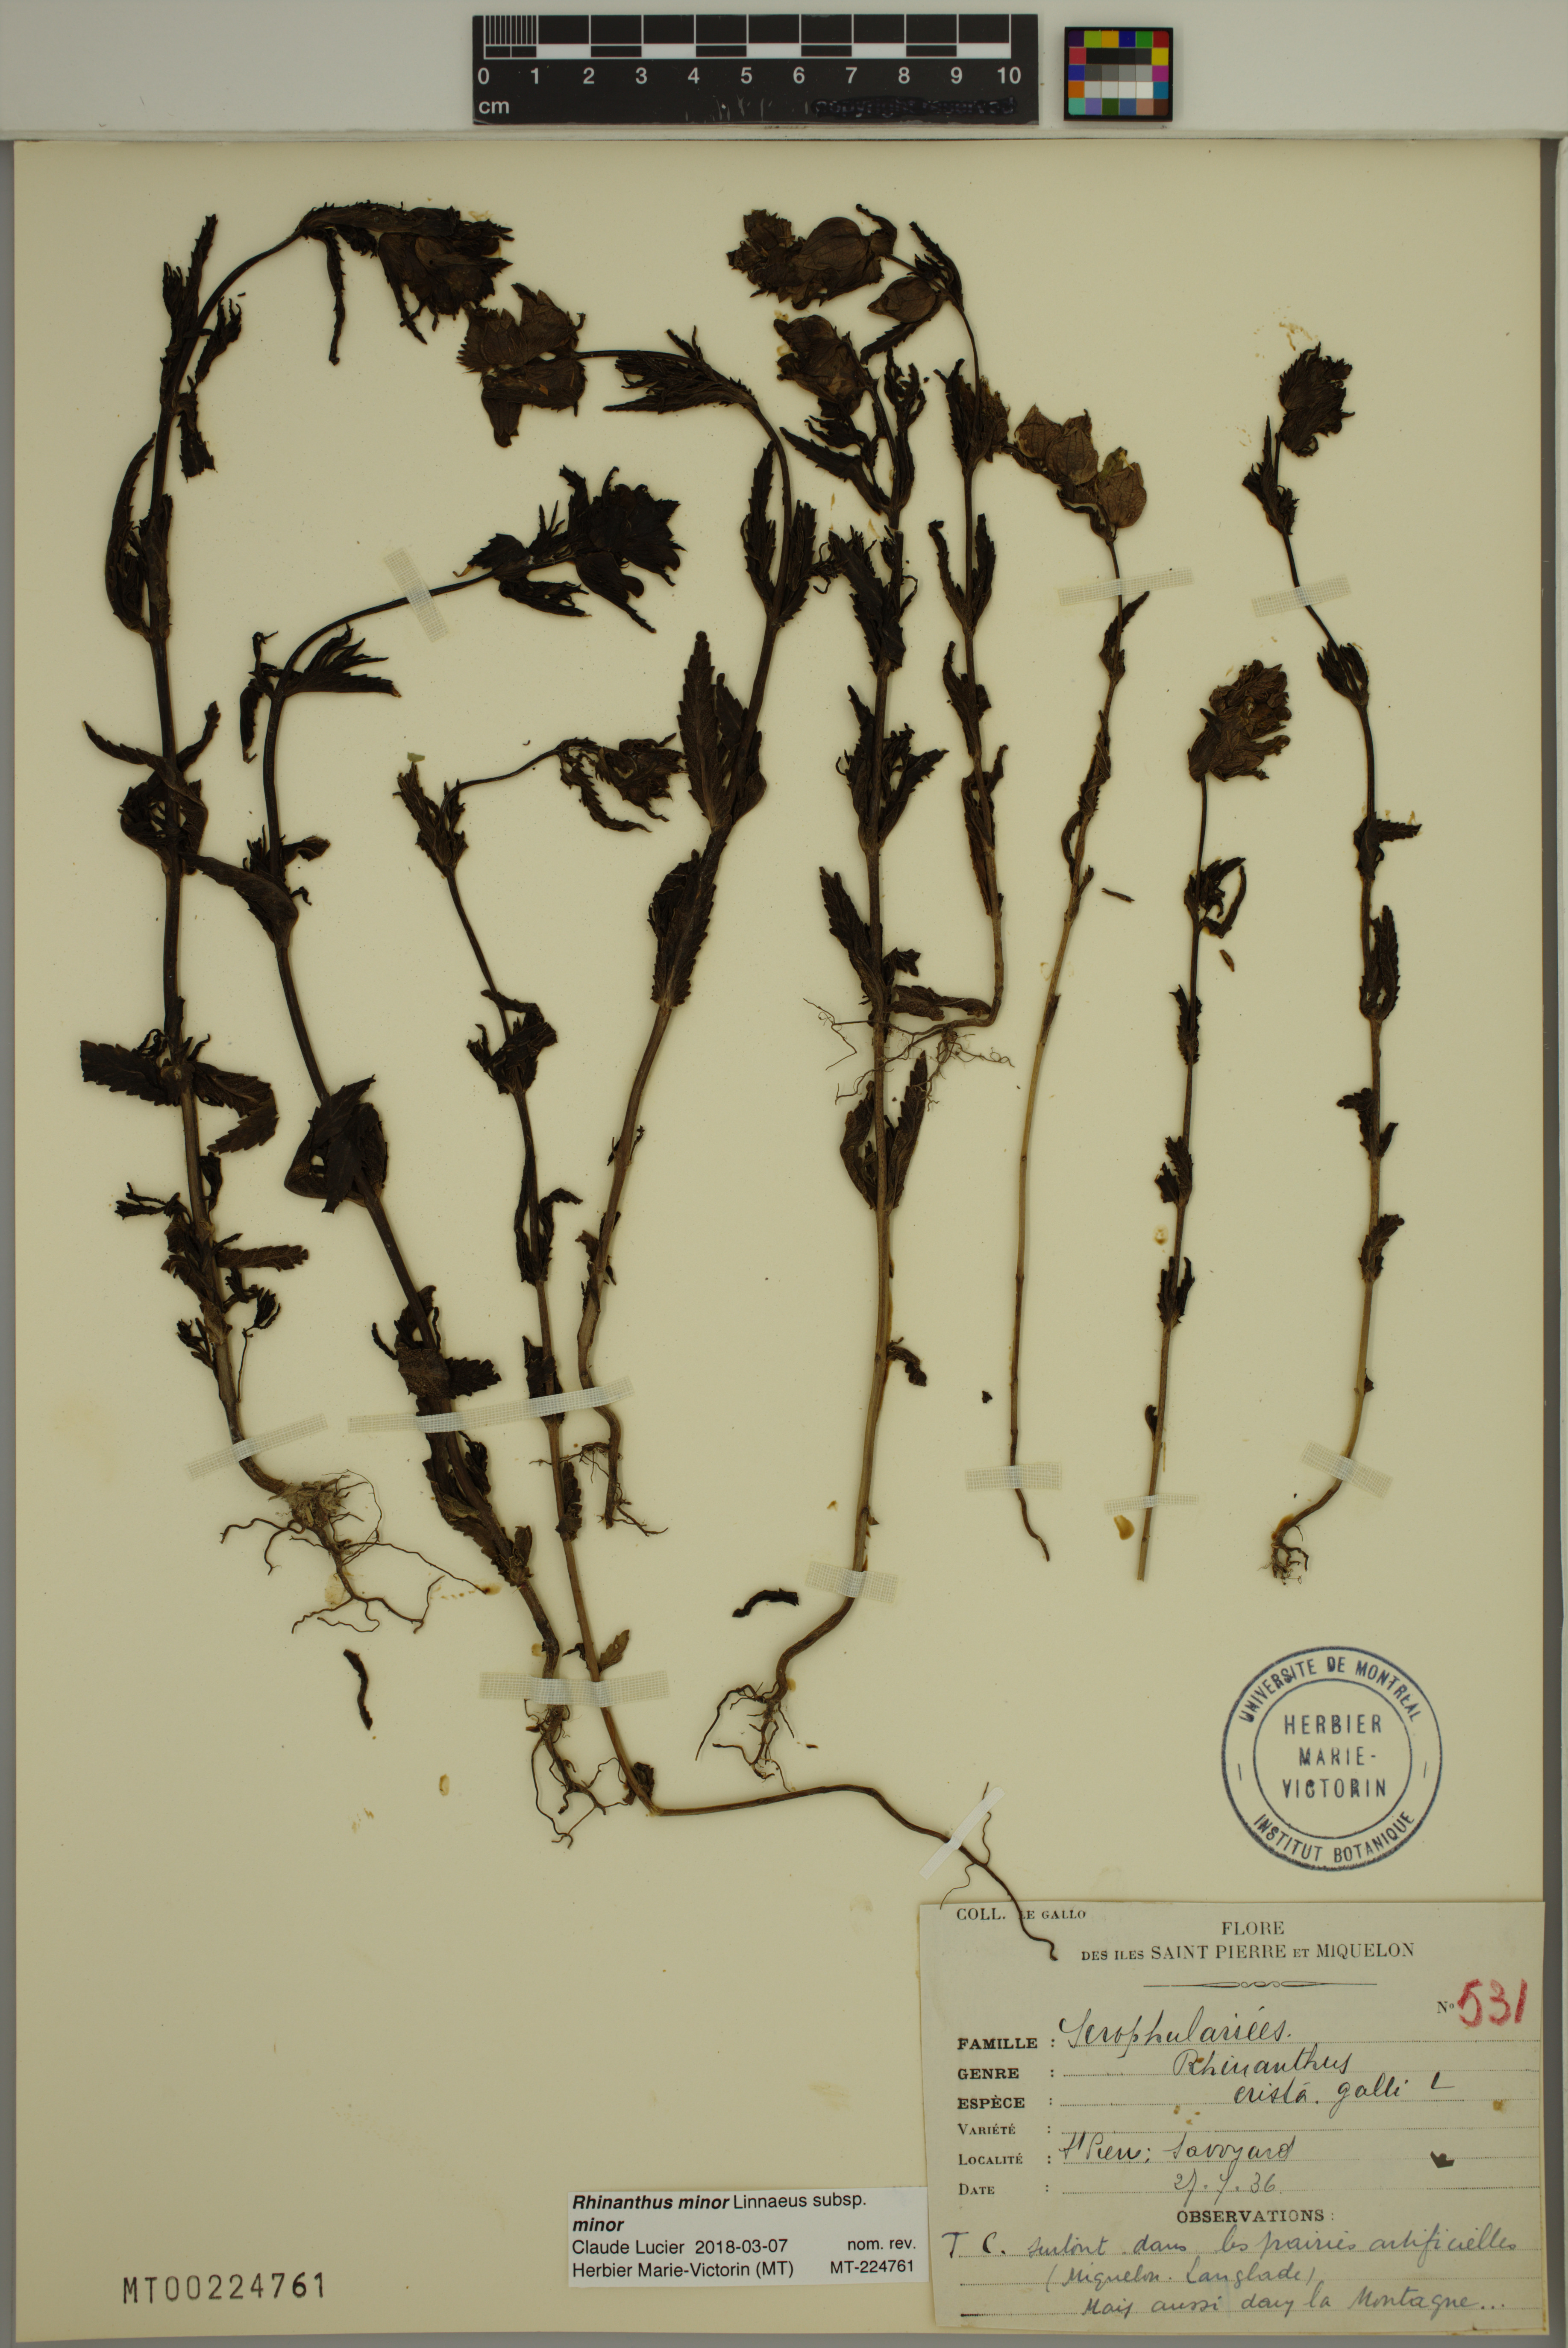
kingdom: Plantae
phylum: Tracheophyta
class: Magnoliopsida
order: Lamiales
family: Orobanchaceae
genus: Rhinanthus
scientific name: Rhinanthus minor
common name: Yellow-rattle
